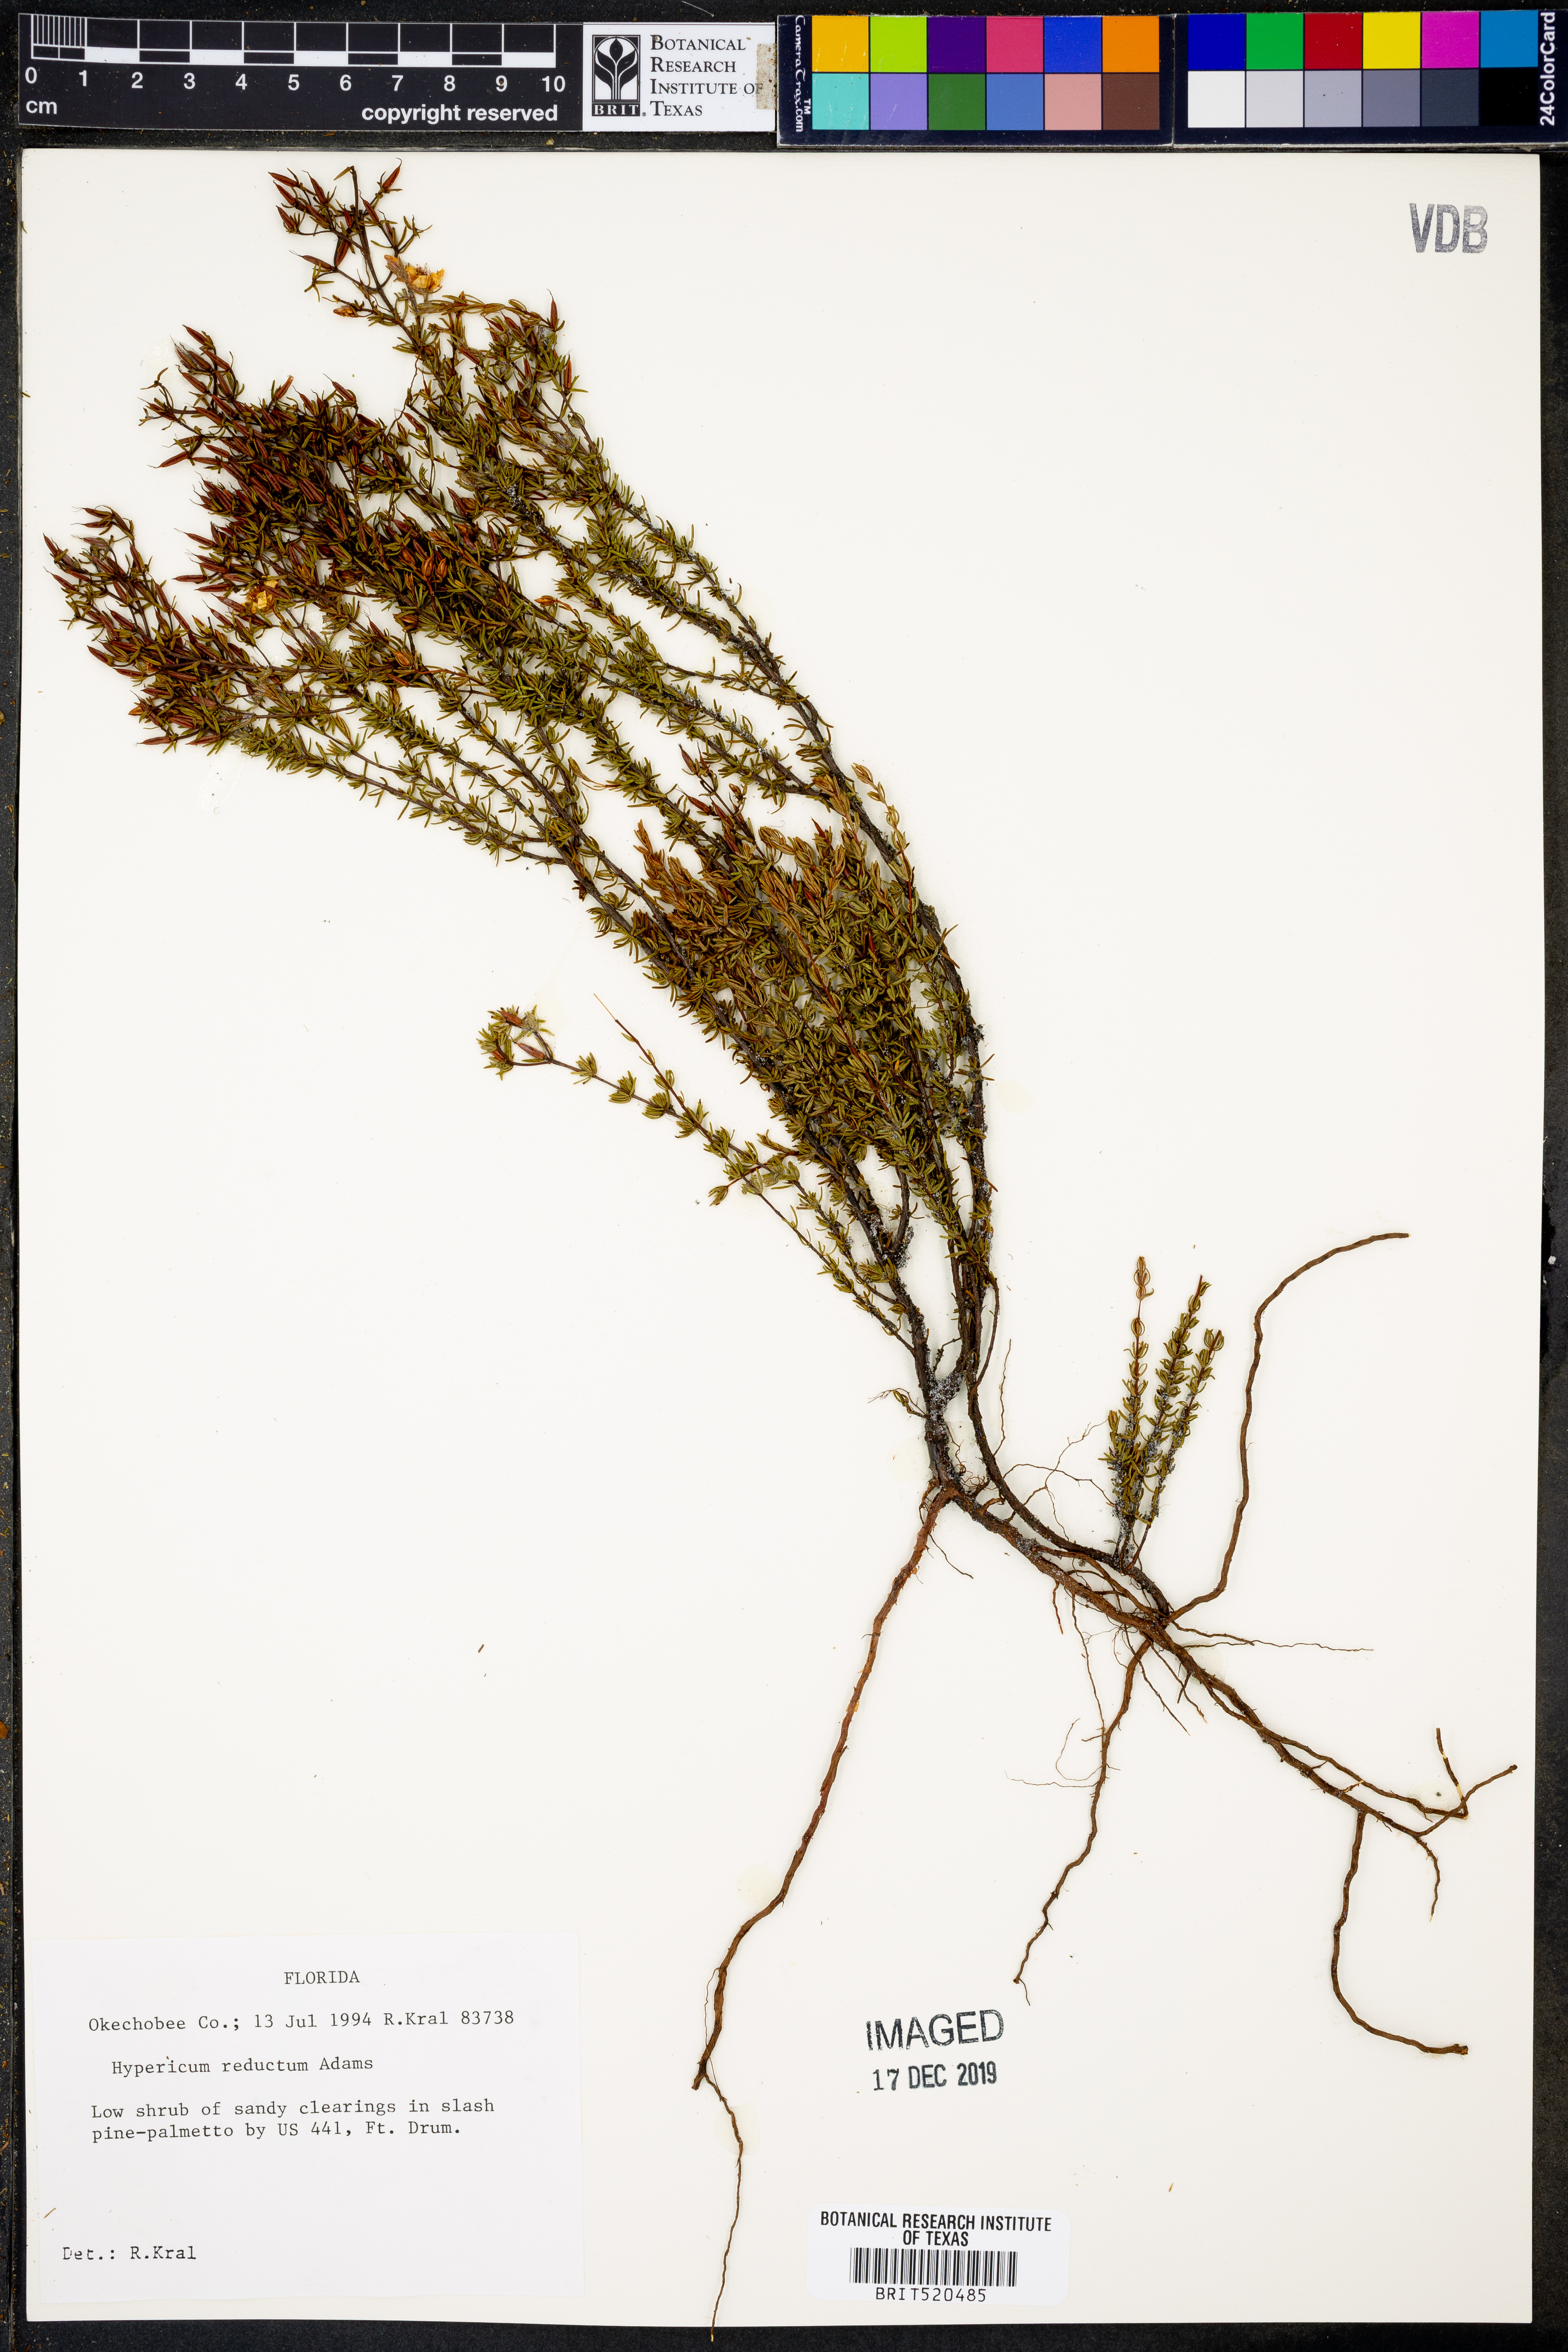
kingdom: Plantae
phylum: Tracheophyta
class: Magnoliopsida
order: Malpighiales
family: Hypericaceae
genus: Hypericum
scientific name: Hypericum tenuifolium
